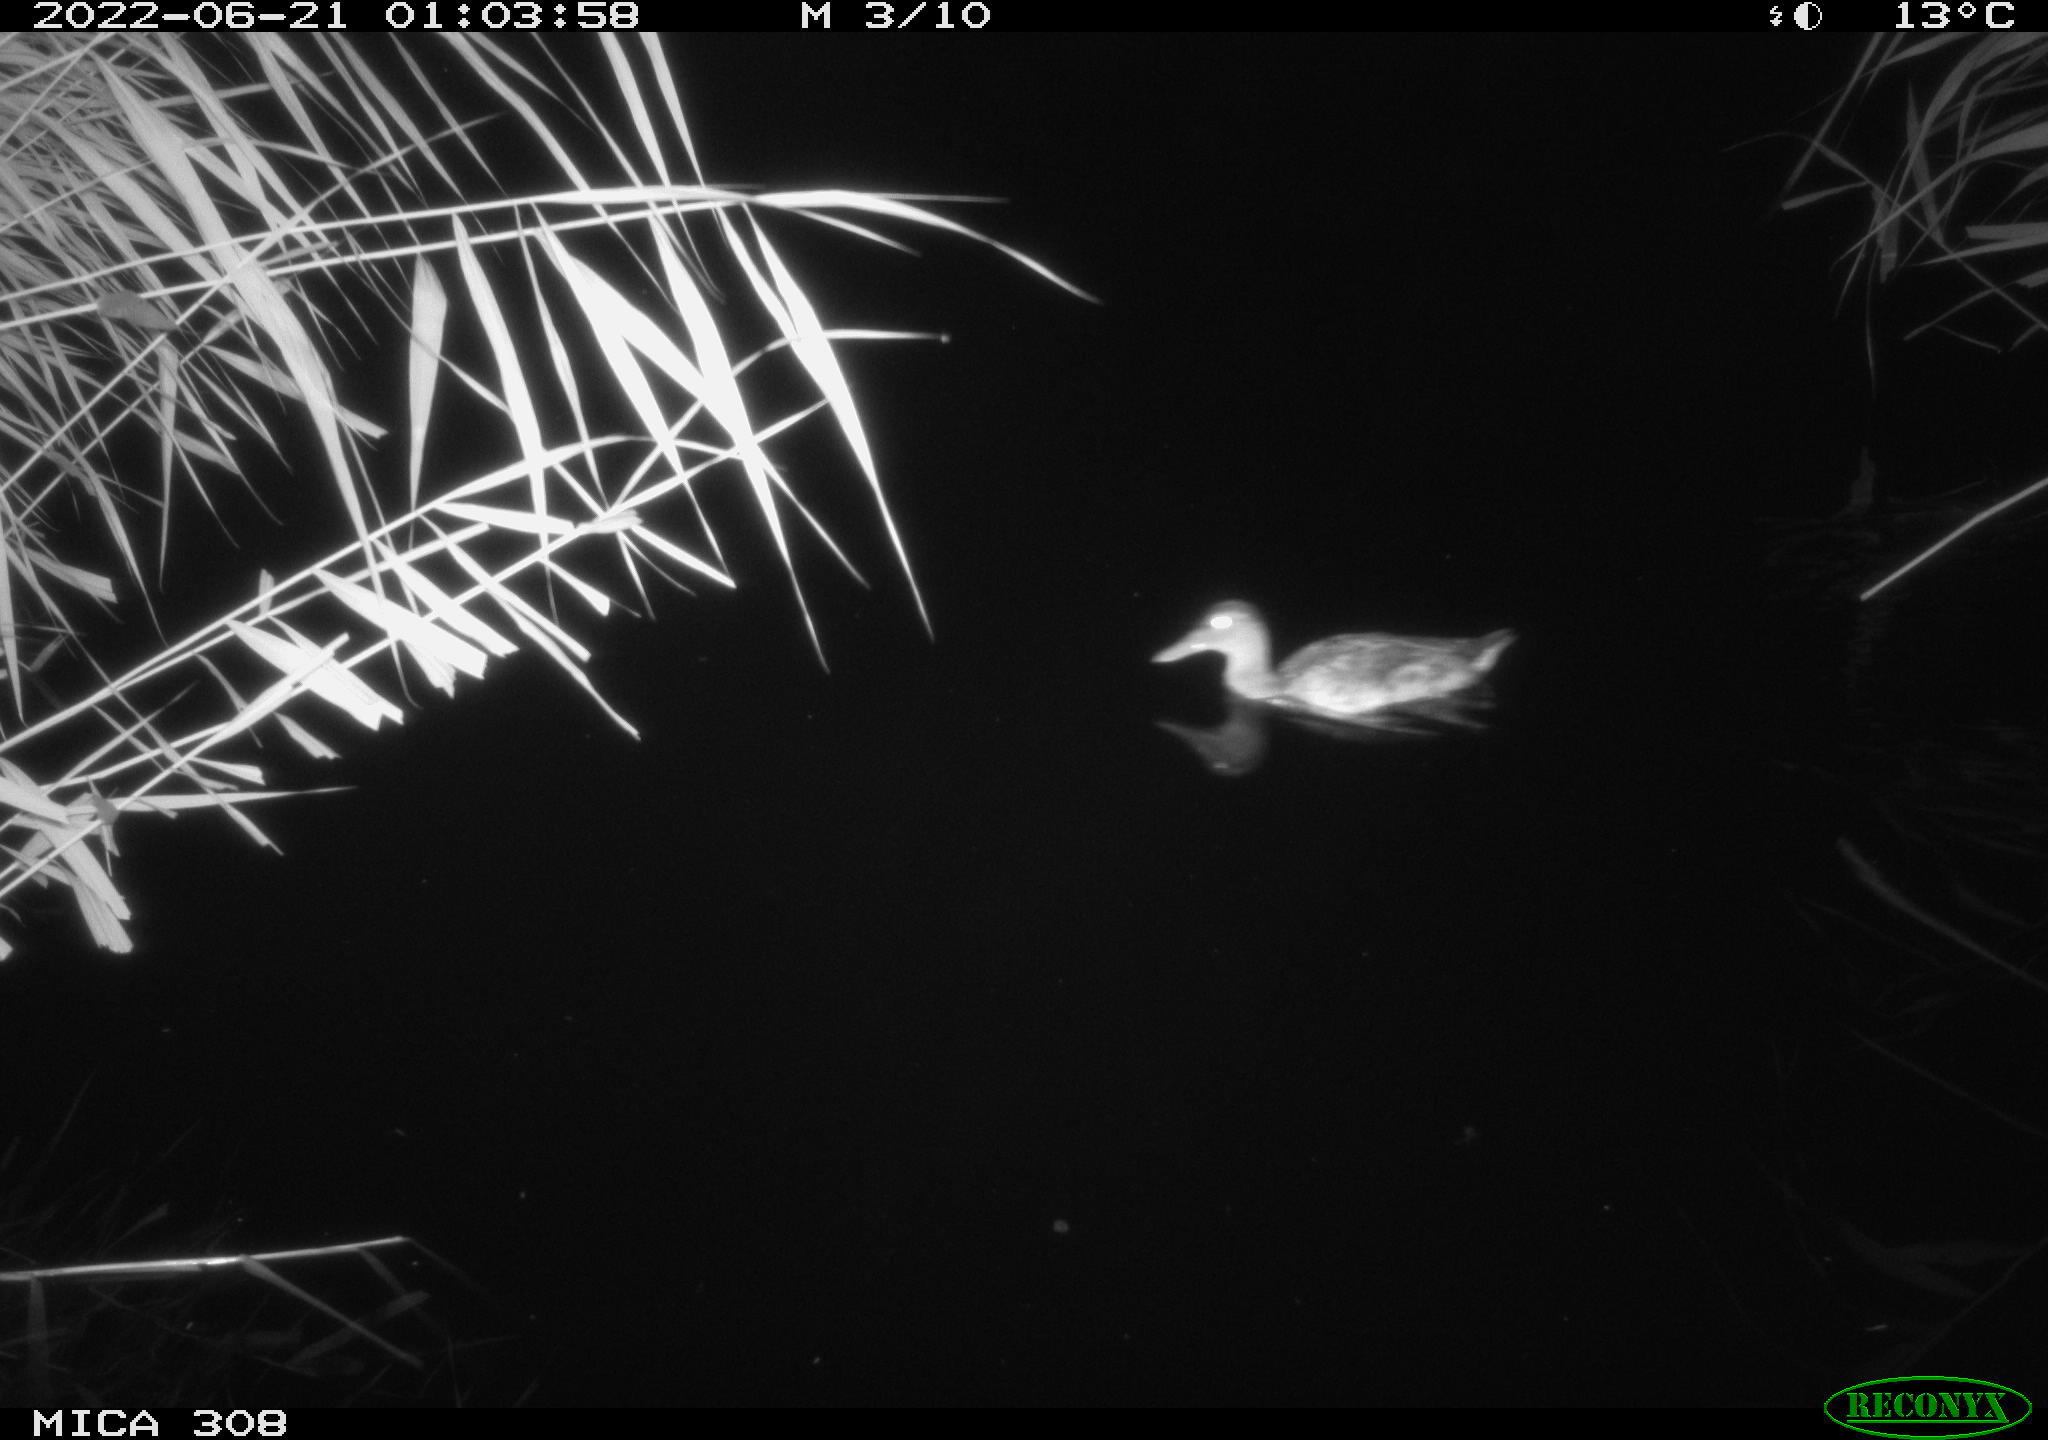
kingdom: Animalia
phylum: Chordata
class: Aves
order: Anseriformes
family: Anatidae
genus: Anas
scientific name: Anas platyrhynchos
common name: Mallard
